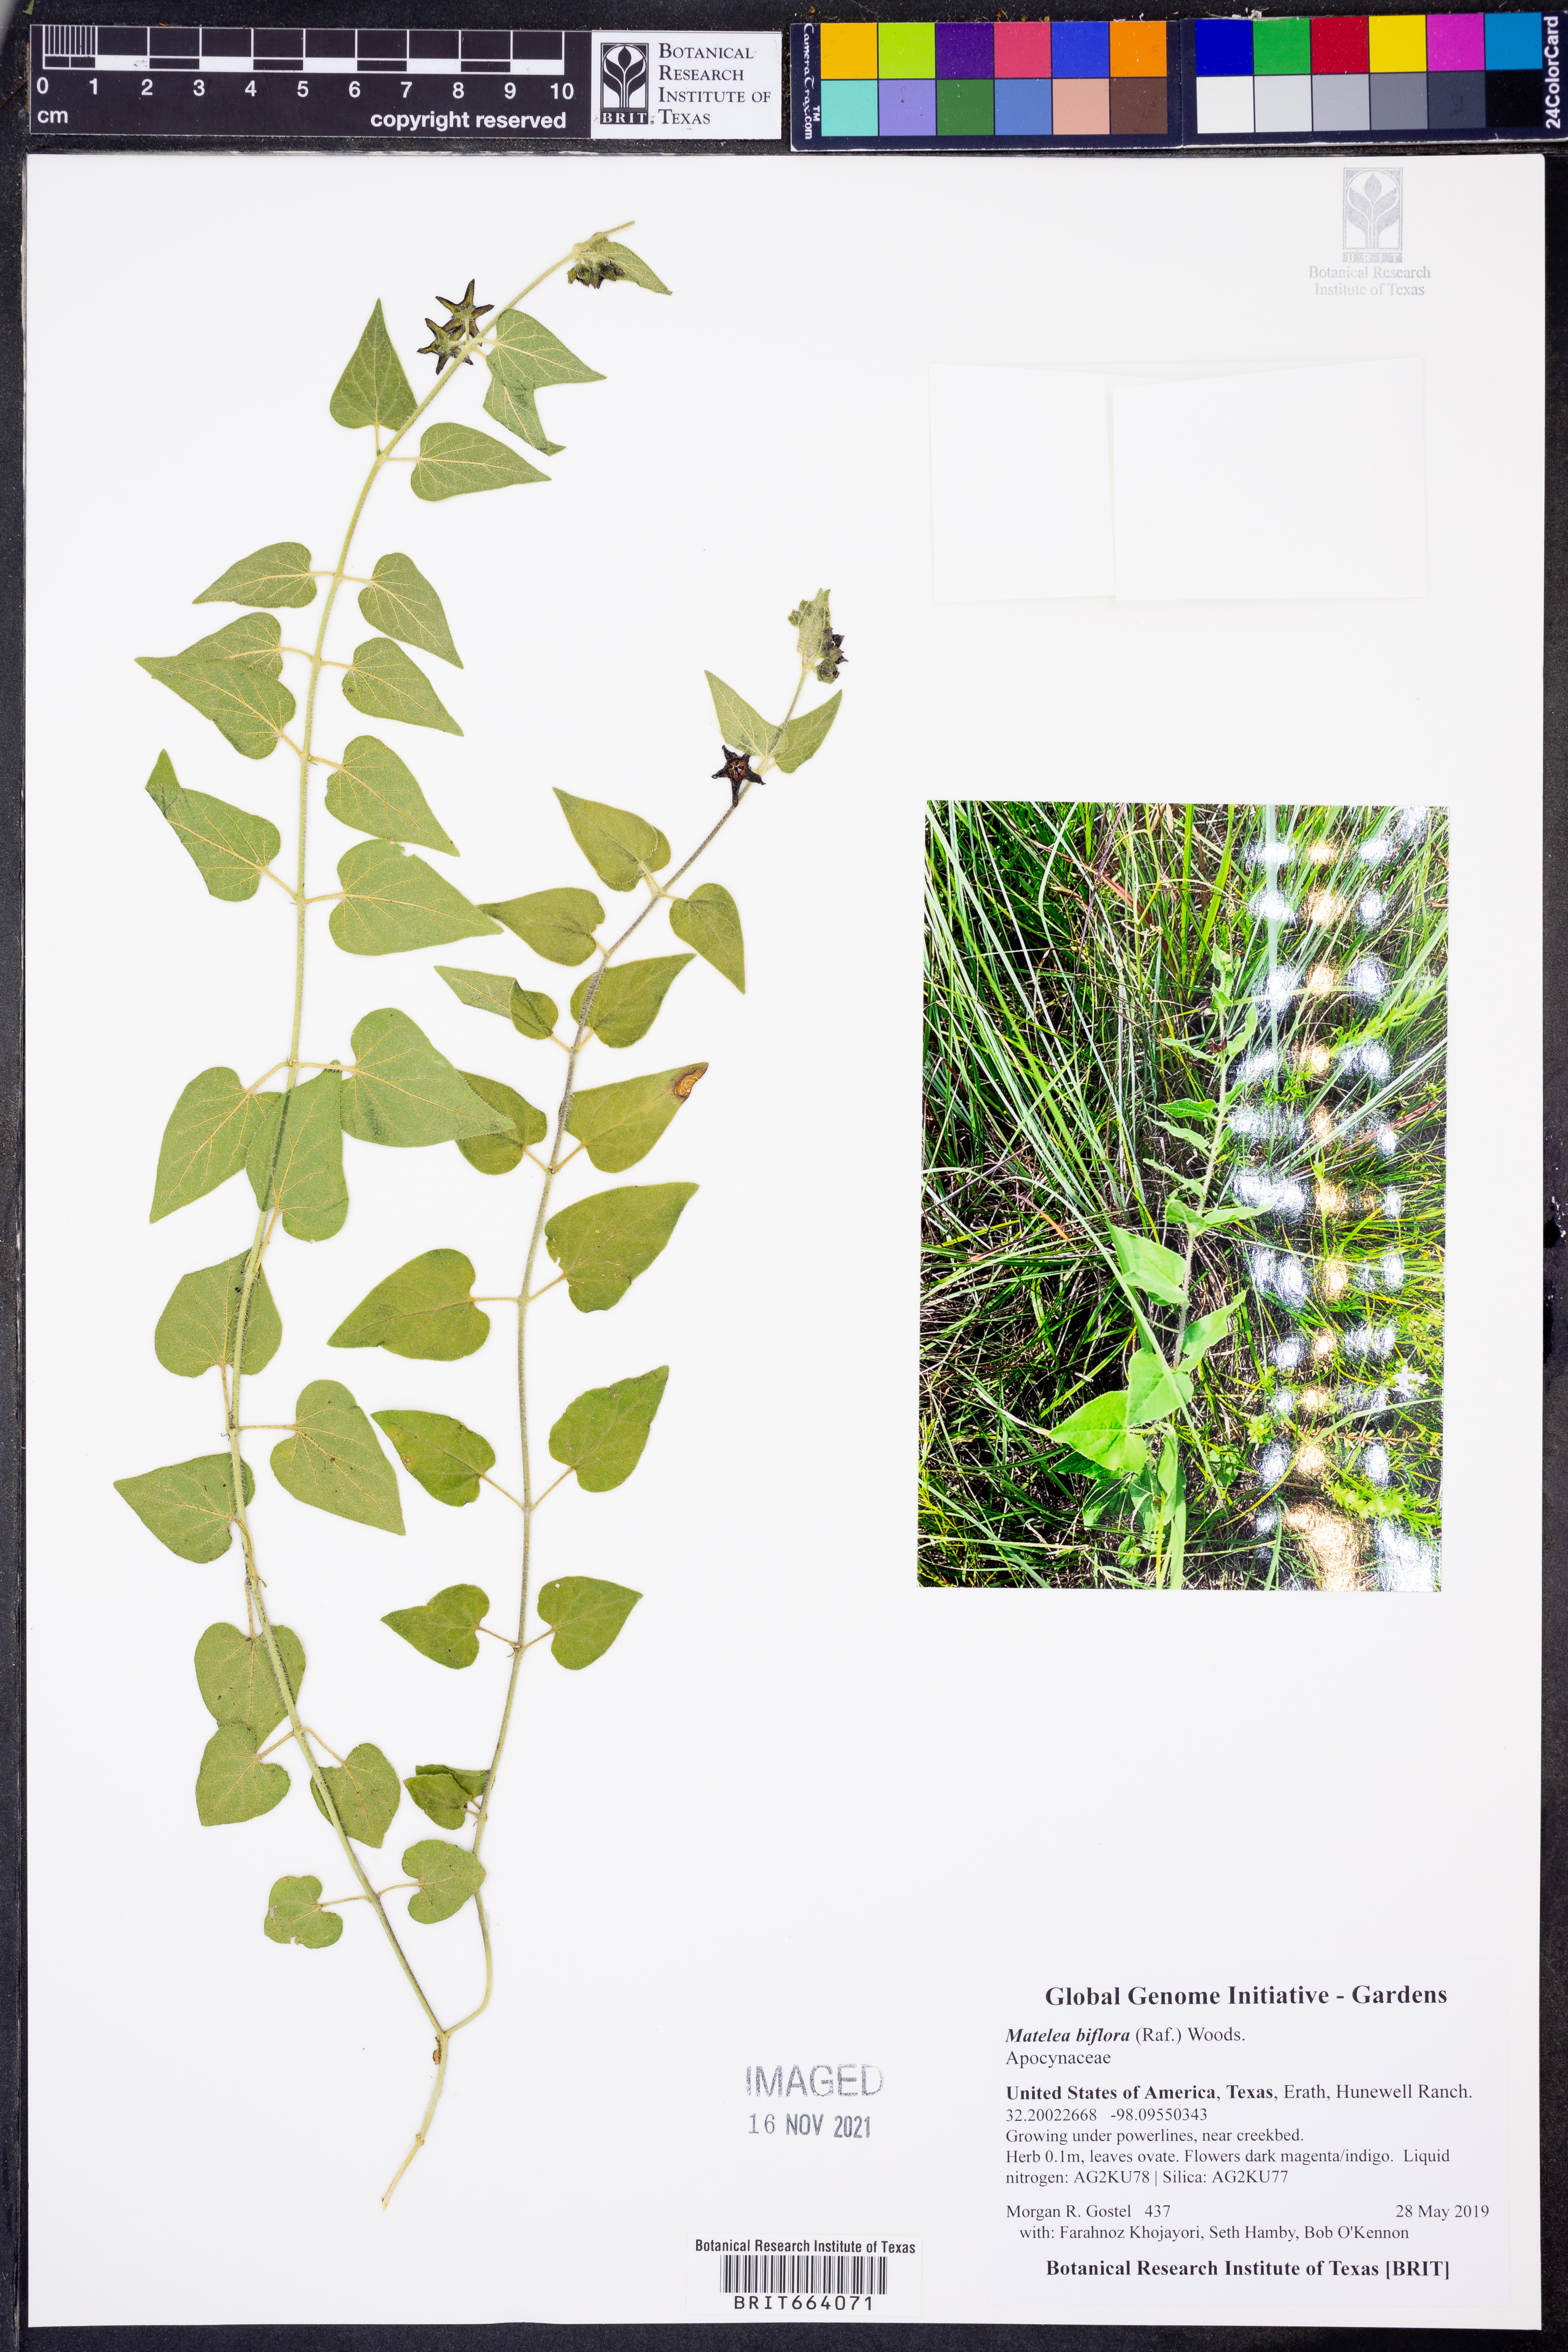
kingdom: Plantae
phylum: Tracheophyta
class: Magnoliopsida
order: Gentianales
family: Apocynaceae
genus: Chthamalia
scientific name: Chthamalia biflora
